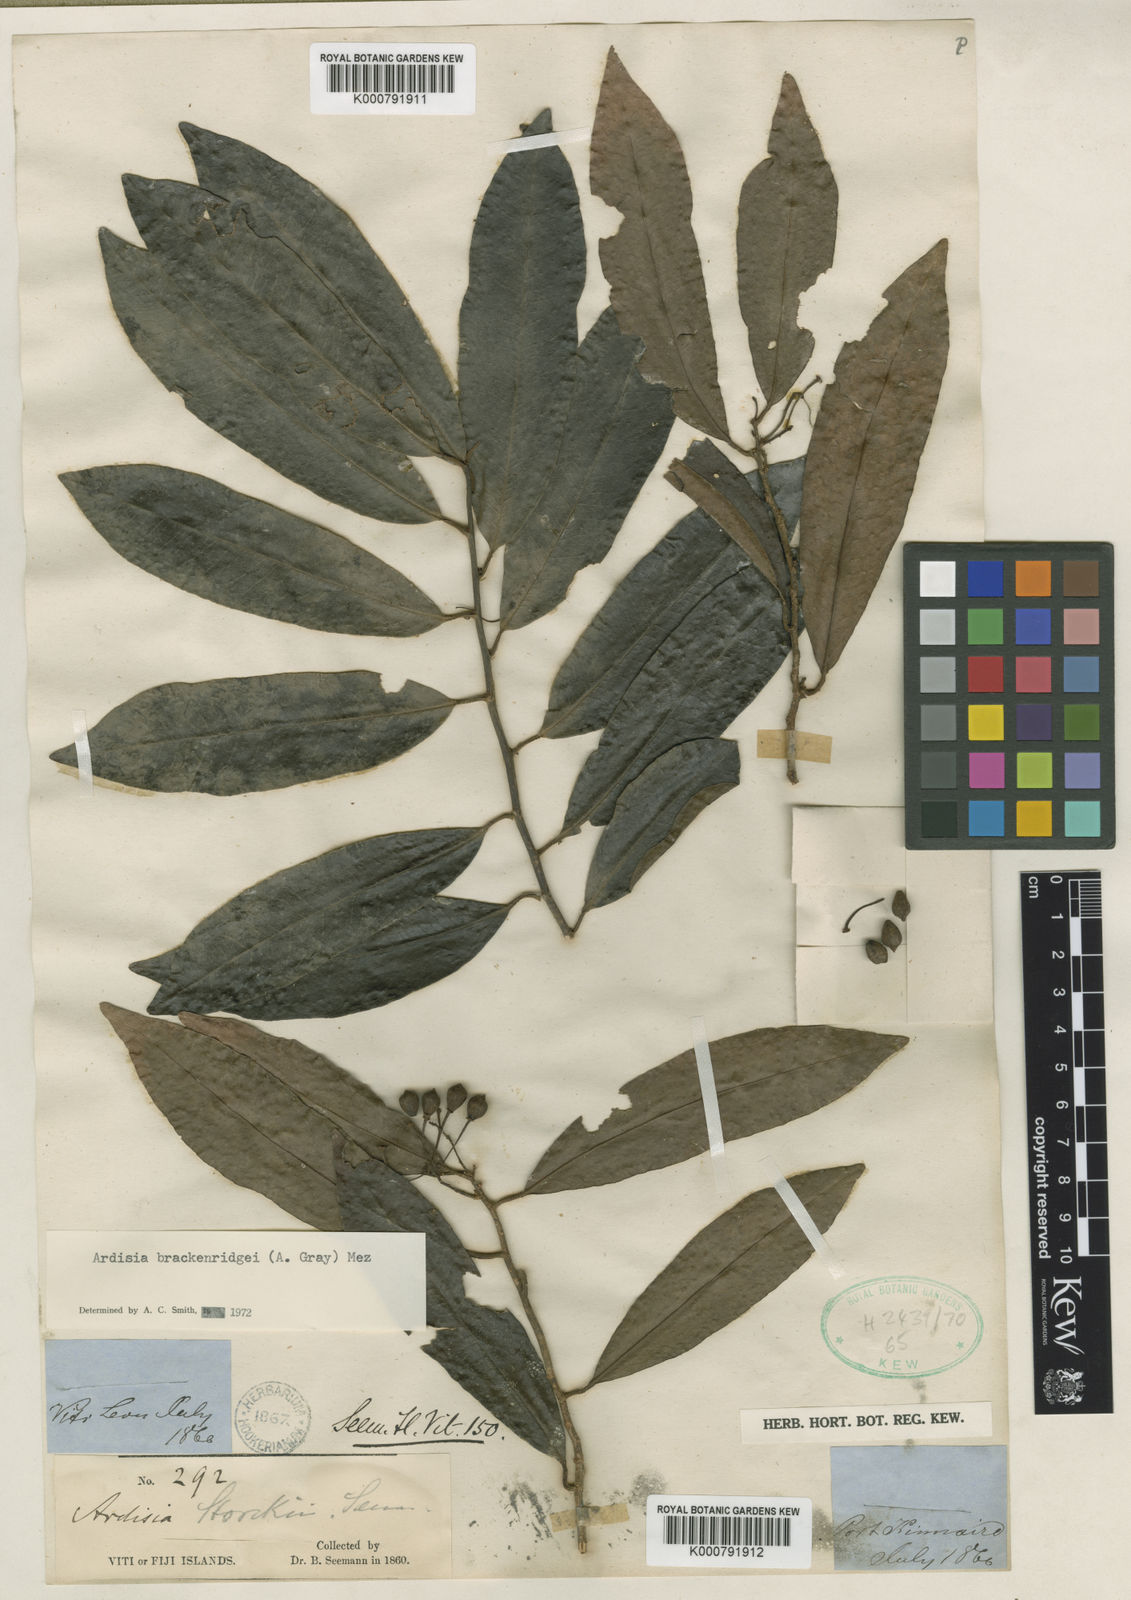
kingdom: Plantae
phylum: Tracheophyta
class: Magnoliopsida
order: Ericales
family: Primulaceae
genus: Ardisia
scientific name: Ardisia brackenridgei
